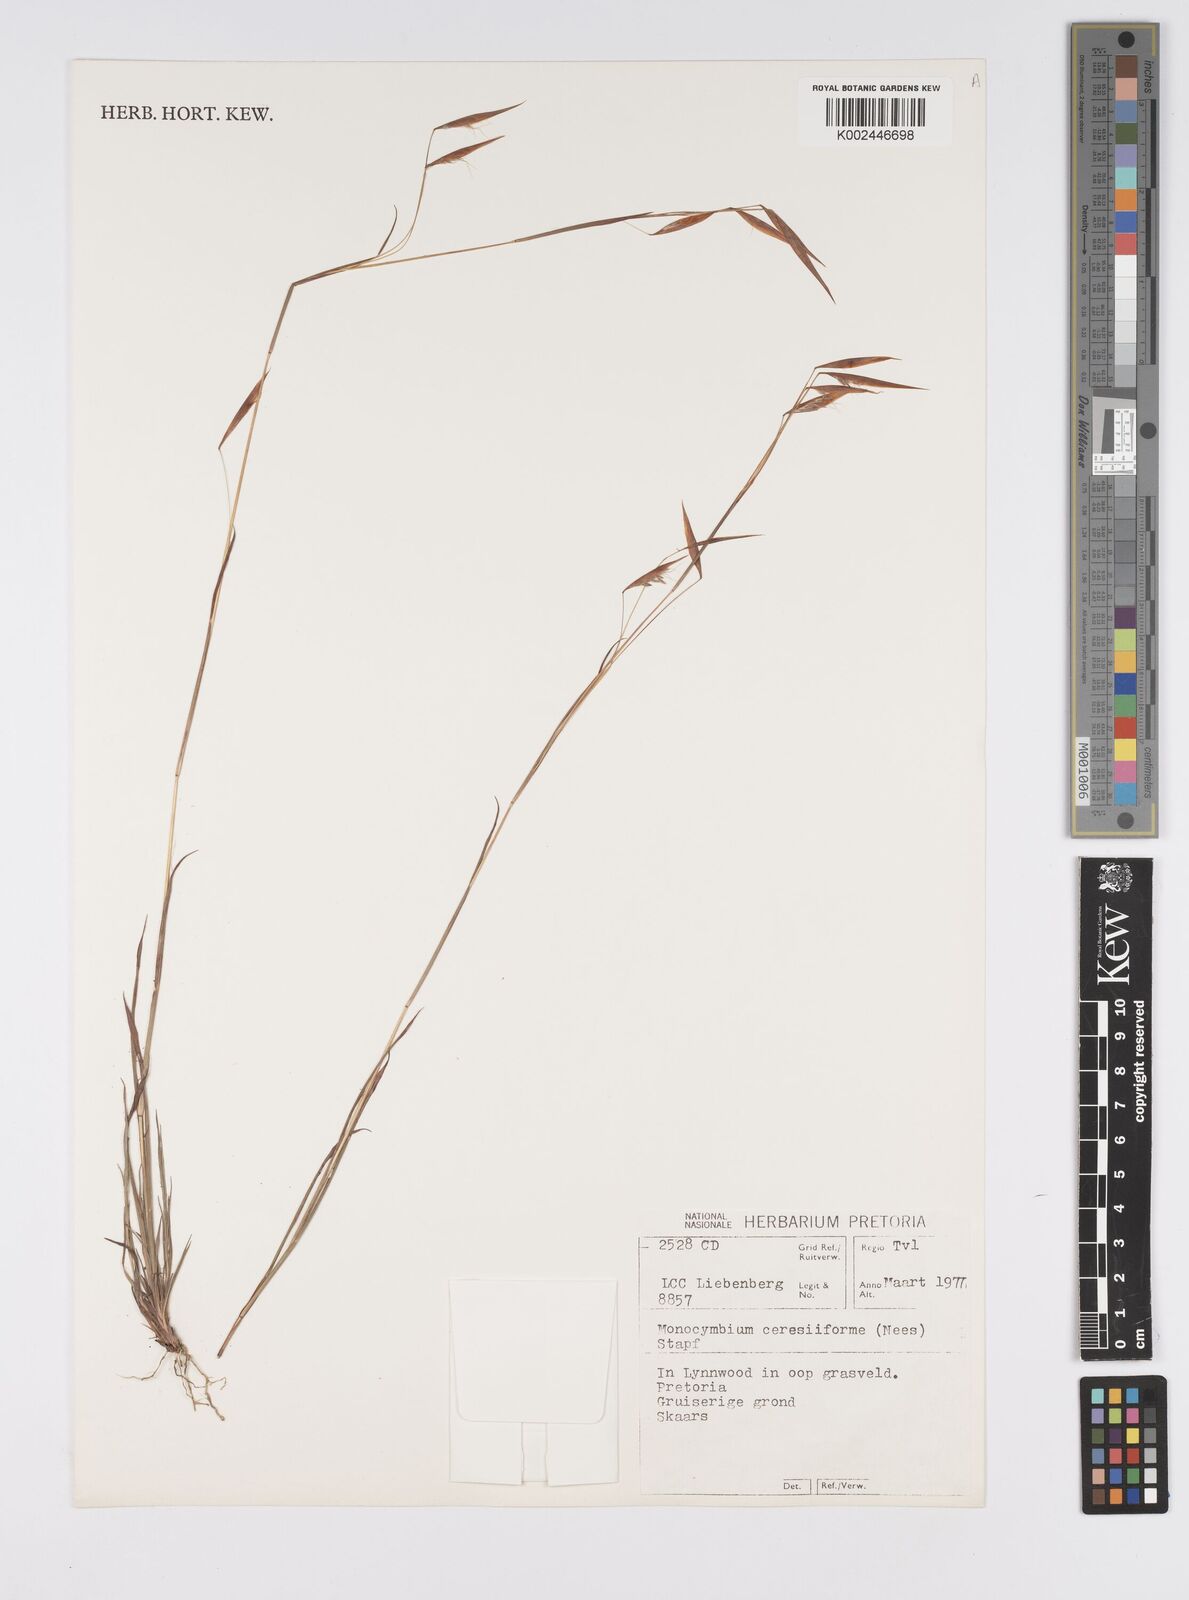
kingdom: Plantae
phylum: Tracheophyta
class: Liliopsida
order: Poales
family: Poaceae
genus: Monocymbium
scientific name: Monocymbium ceresiiforme
